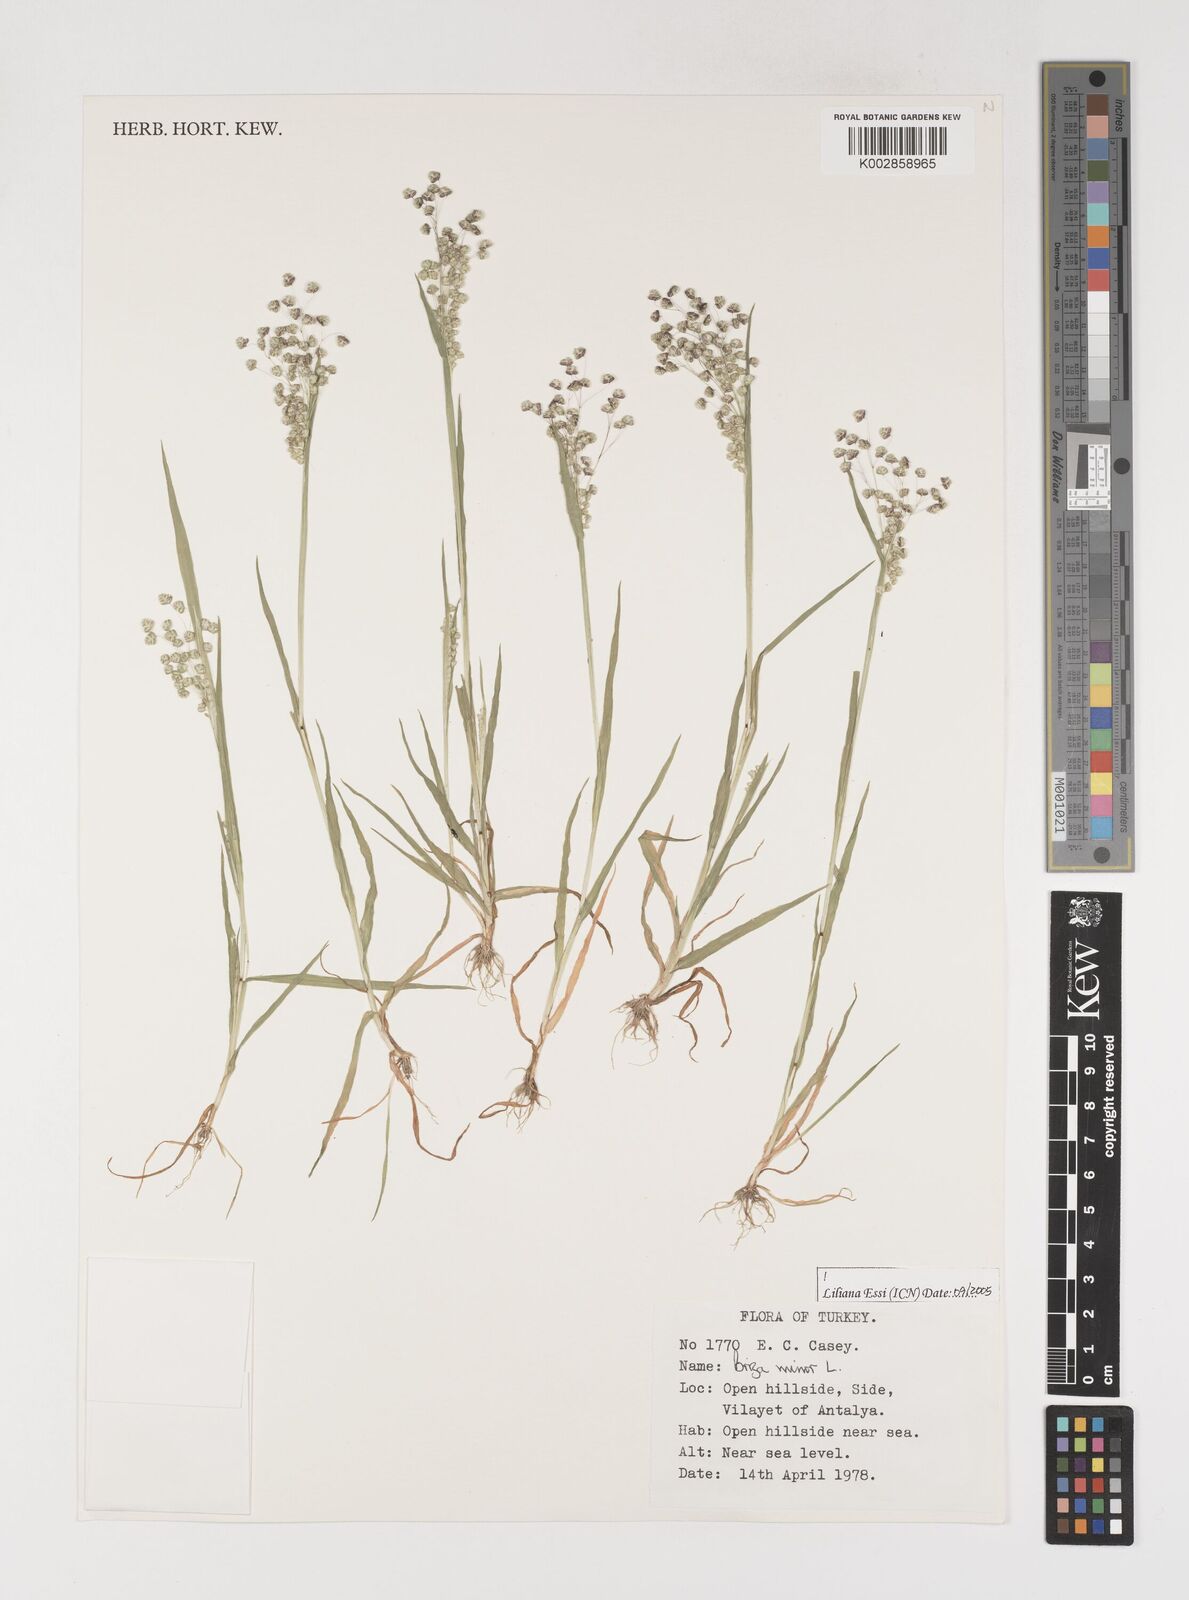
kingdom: Plantae
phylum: Tracheophyta
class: Liliopsida
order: Poales
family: Poaceae
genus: Briza
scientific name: Briza minor
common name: Lesser quaking-grass
